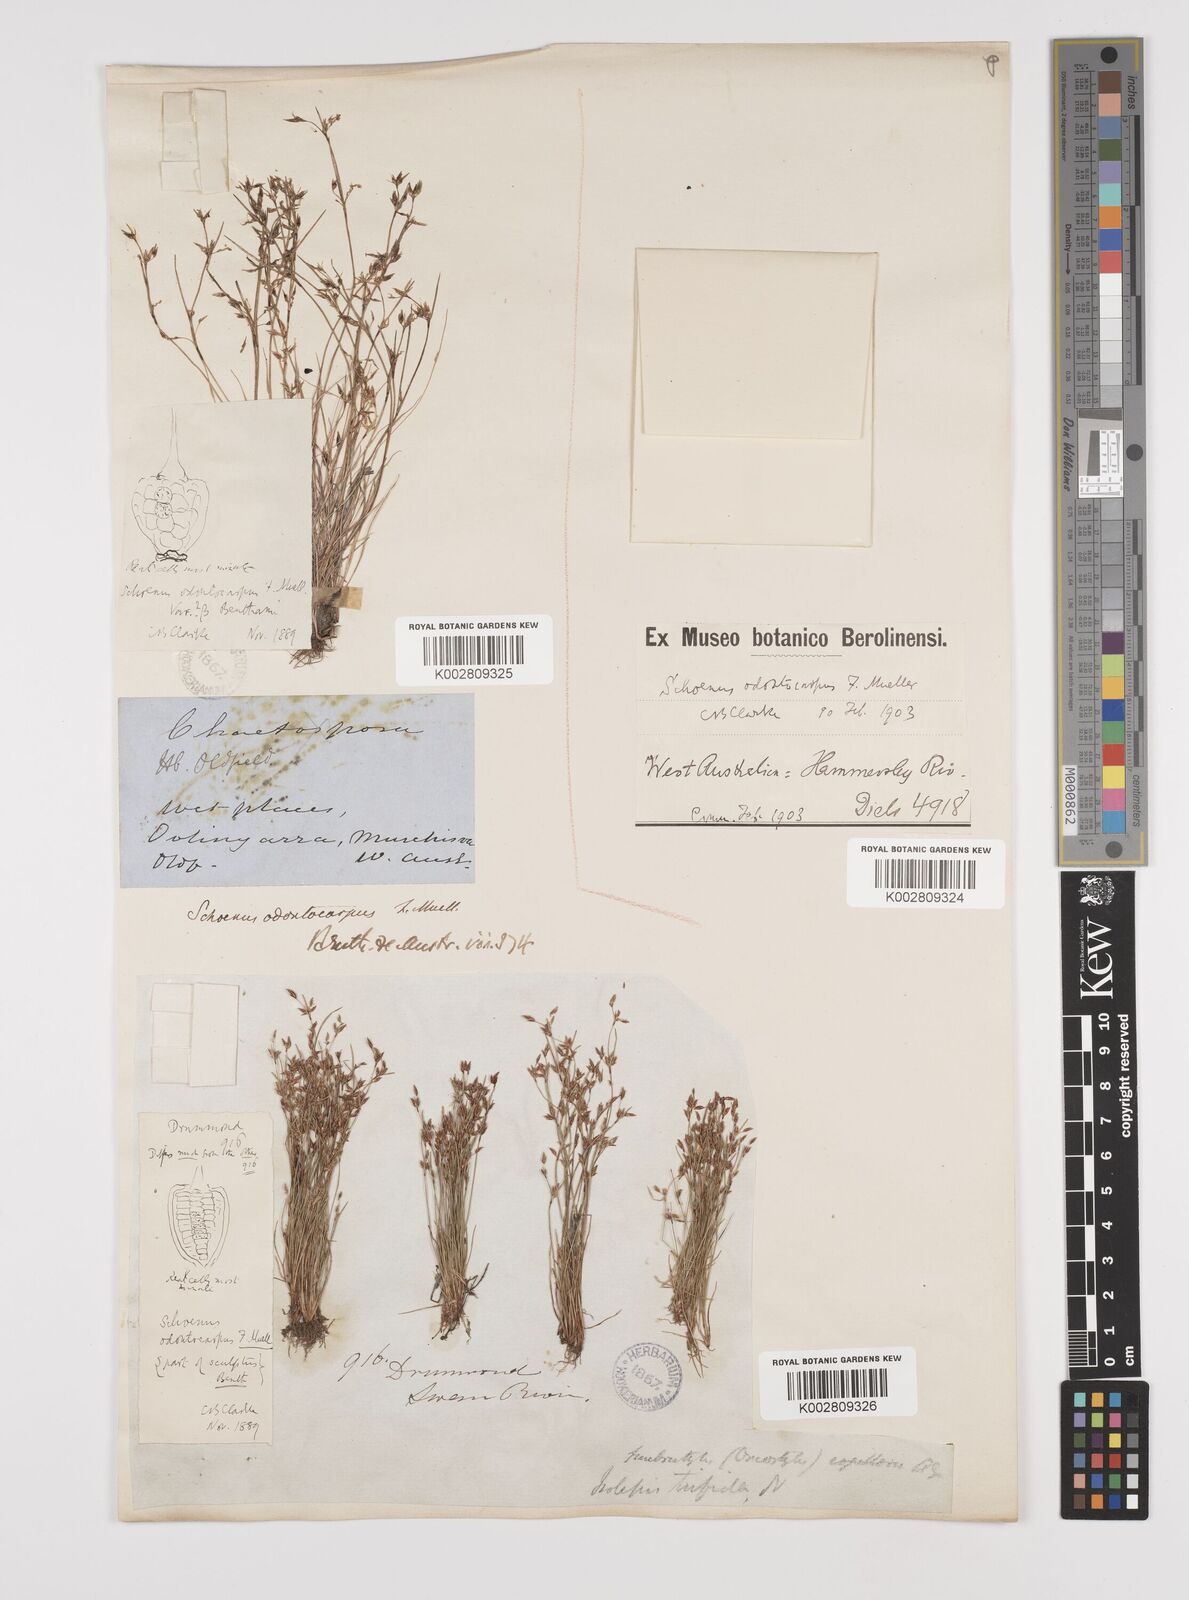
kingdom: Plantae
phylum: Tracheophyta
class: Liliopsida
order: Poales
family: Cyperaceae
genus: Schoenus
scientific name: Schoenus odontocarpus
